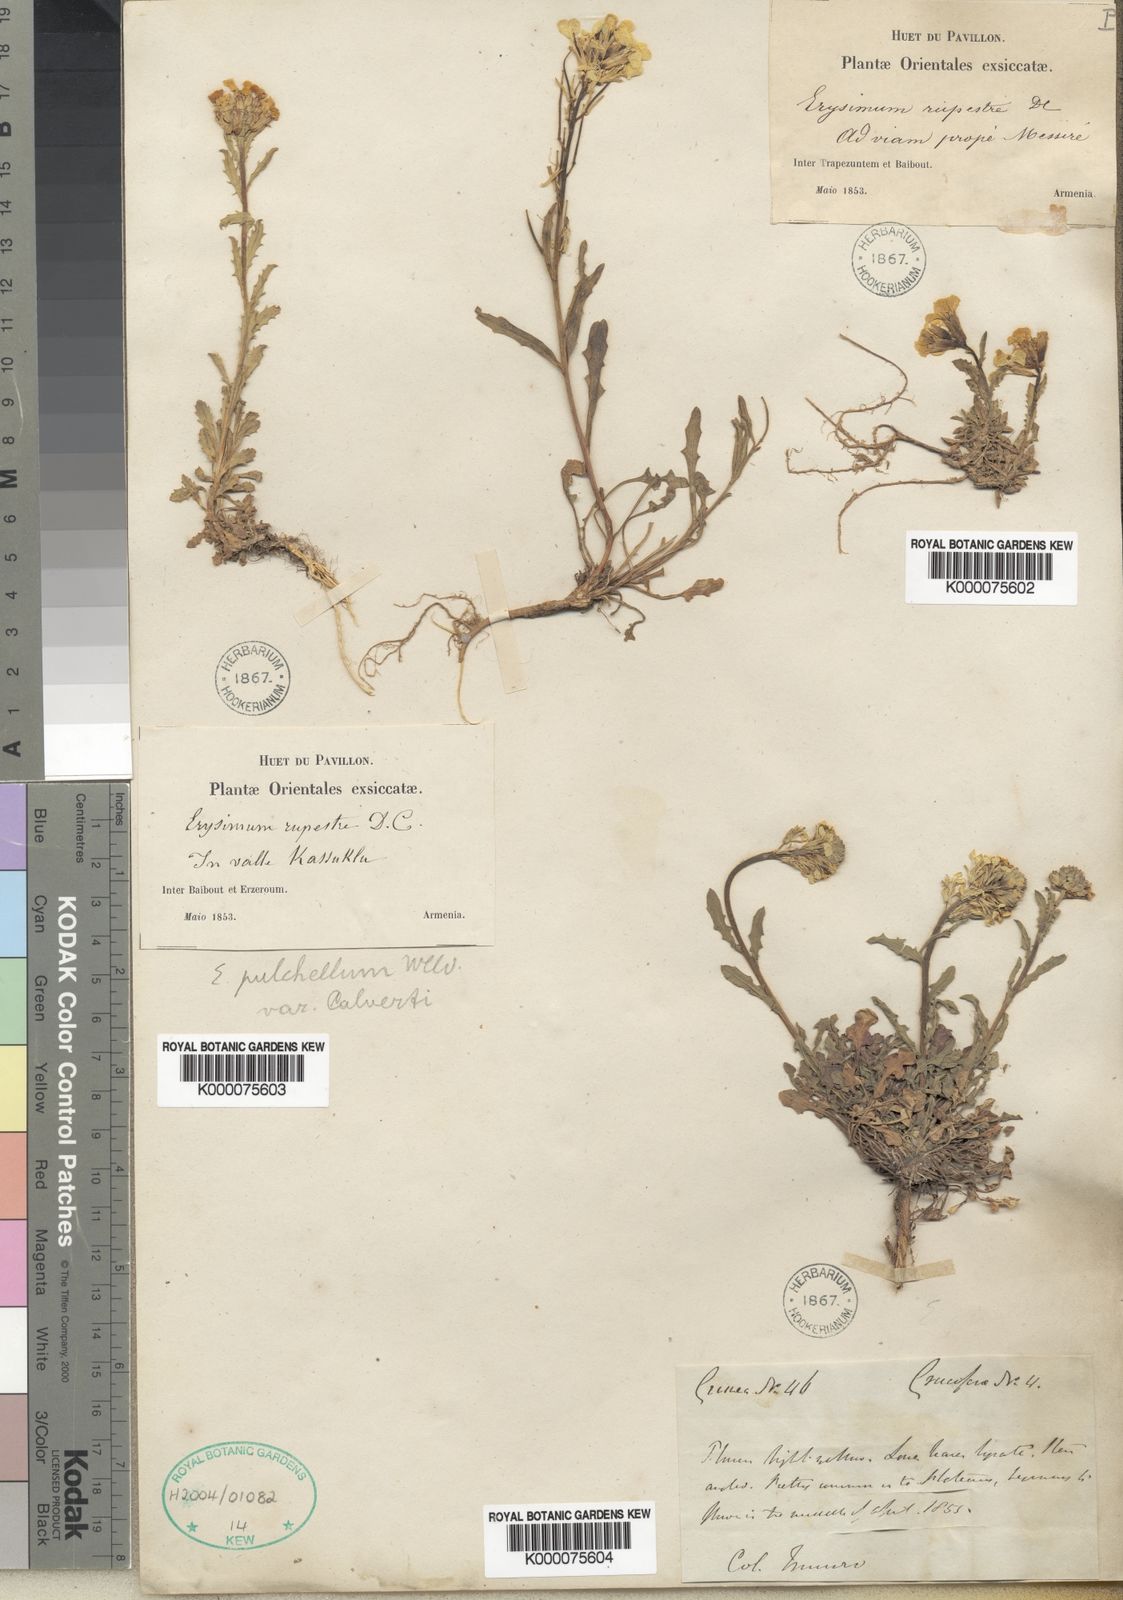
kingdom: Plantae
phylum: Tracheophyta
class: Magnoliopsida
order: Brassicales
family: Brassicaceae
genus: Erysimum
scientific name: Erysimum pulchellum
